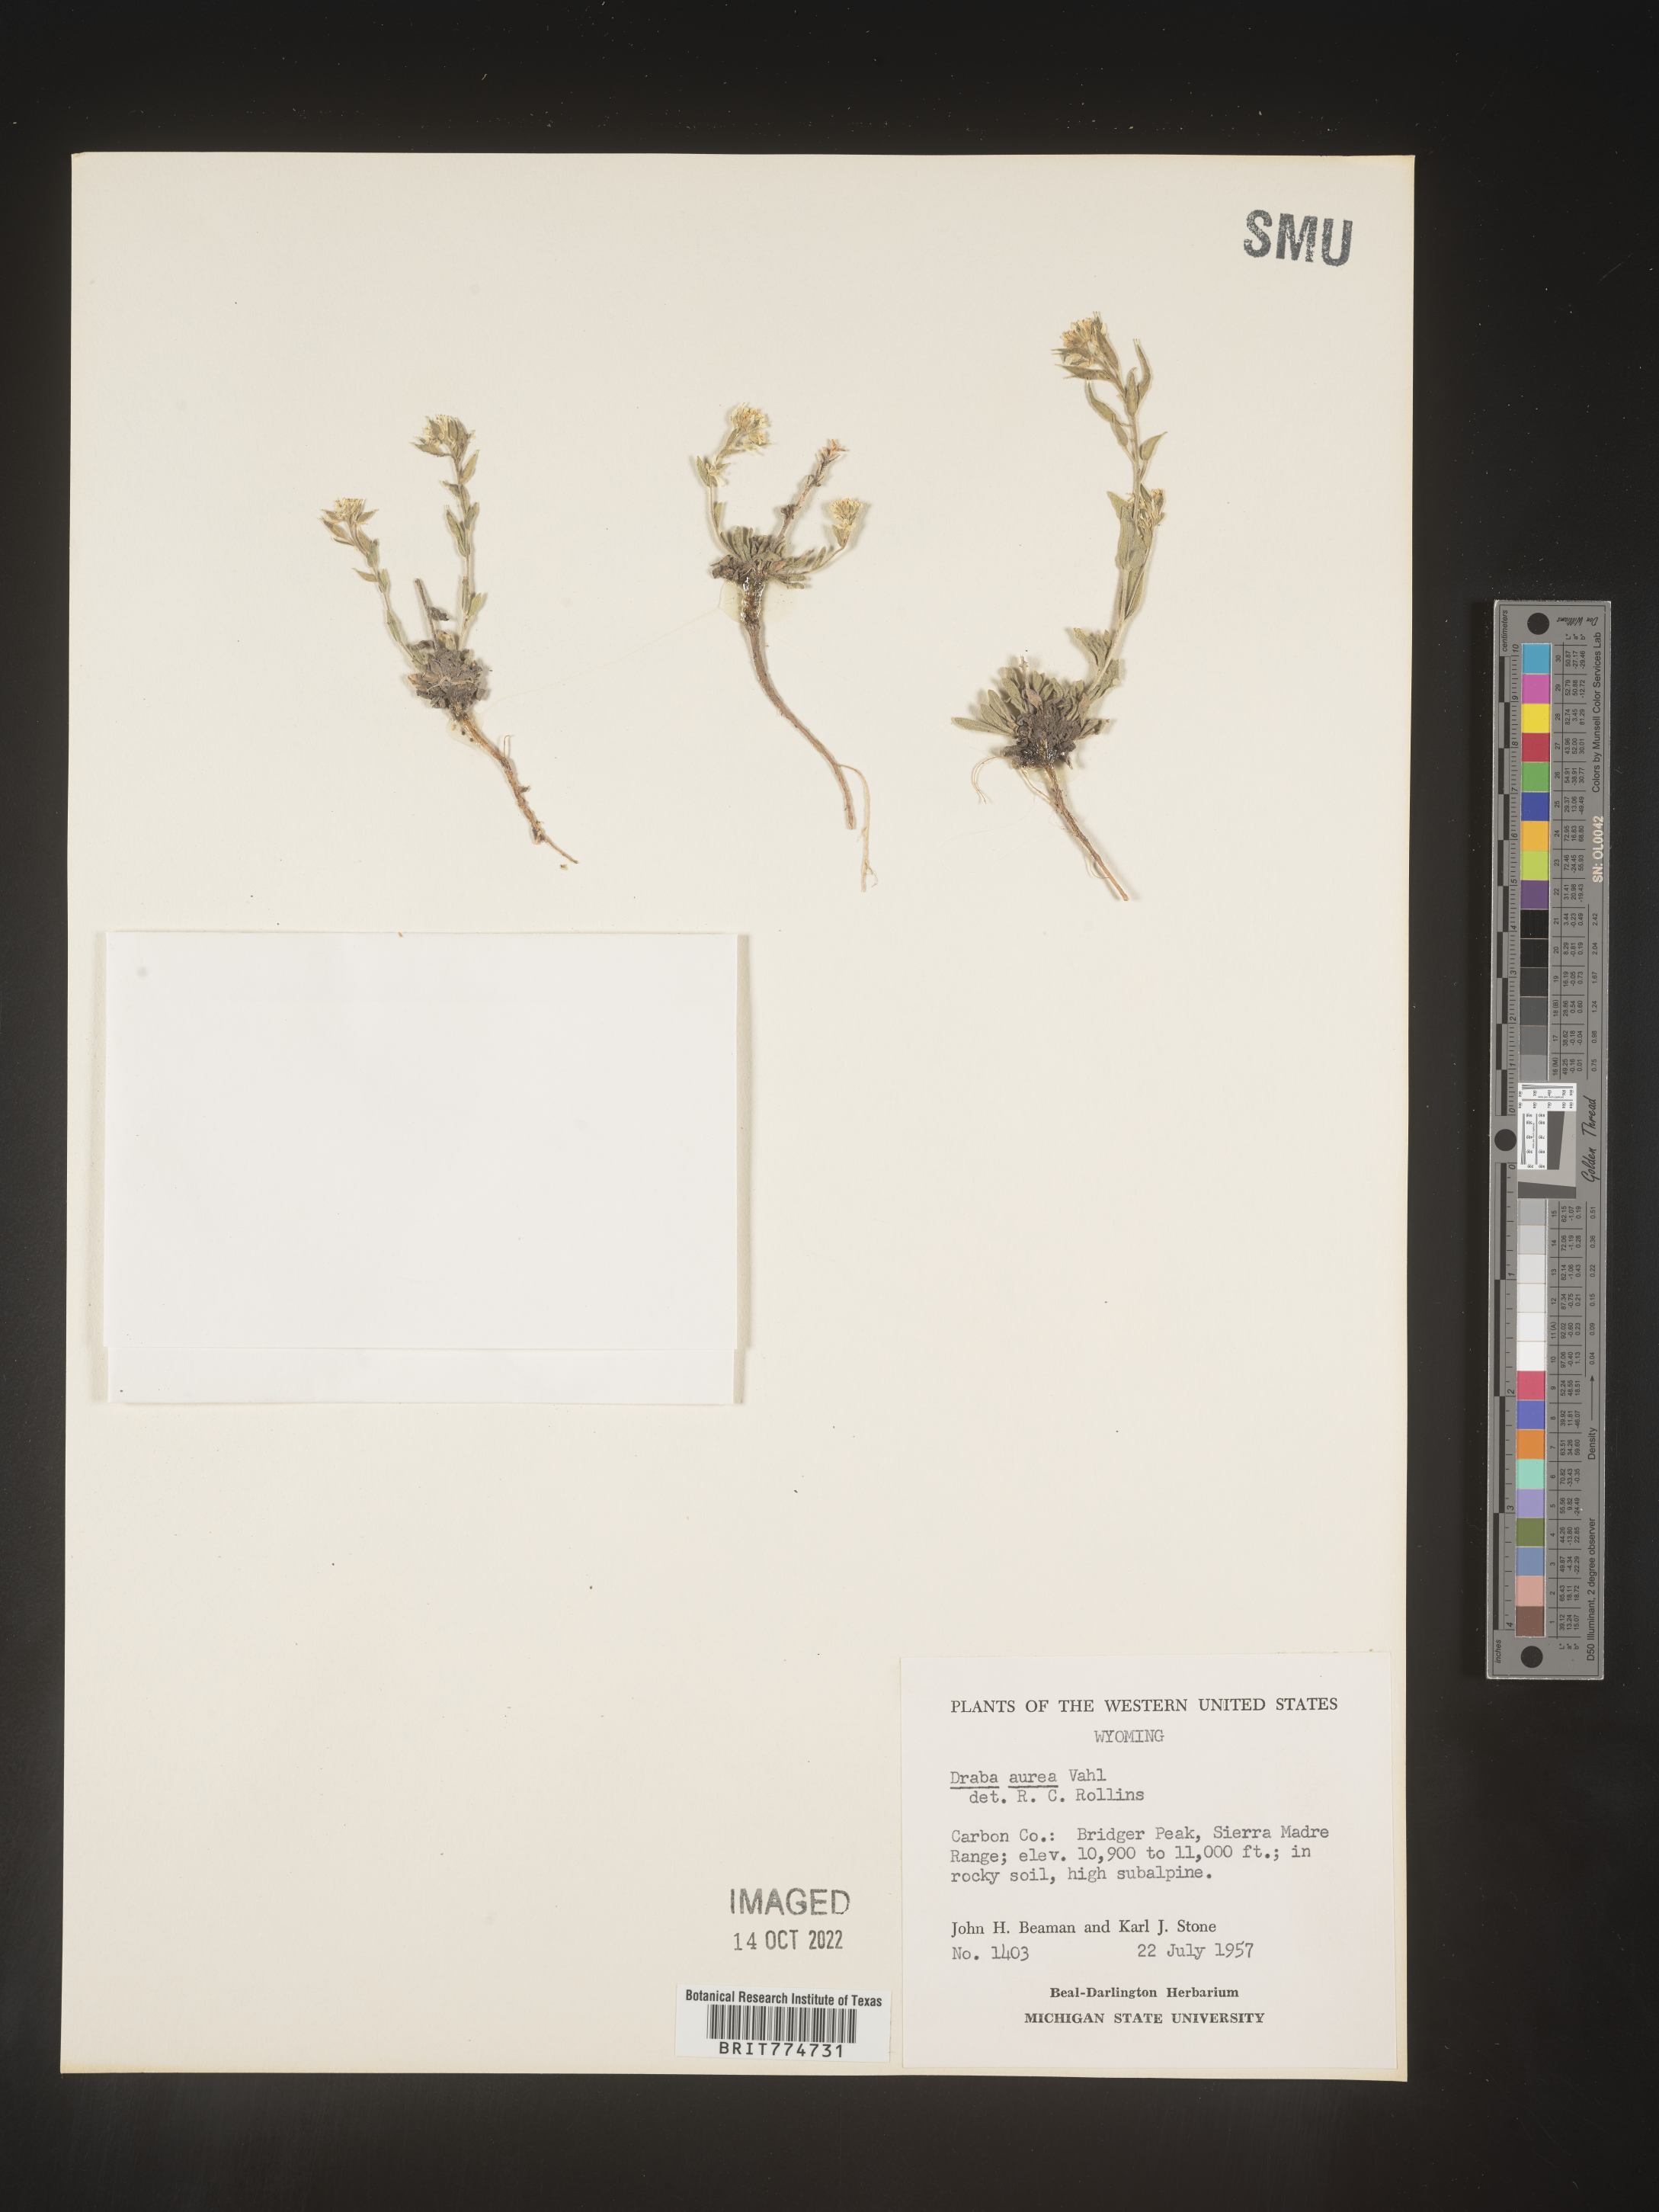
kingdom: Plantae
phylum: Tracheophyta
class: Magnoliopsida
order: Brassicales
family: Brassicaceae
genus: Draba
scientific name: Draba
